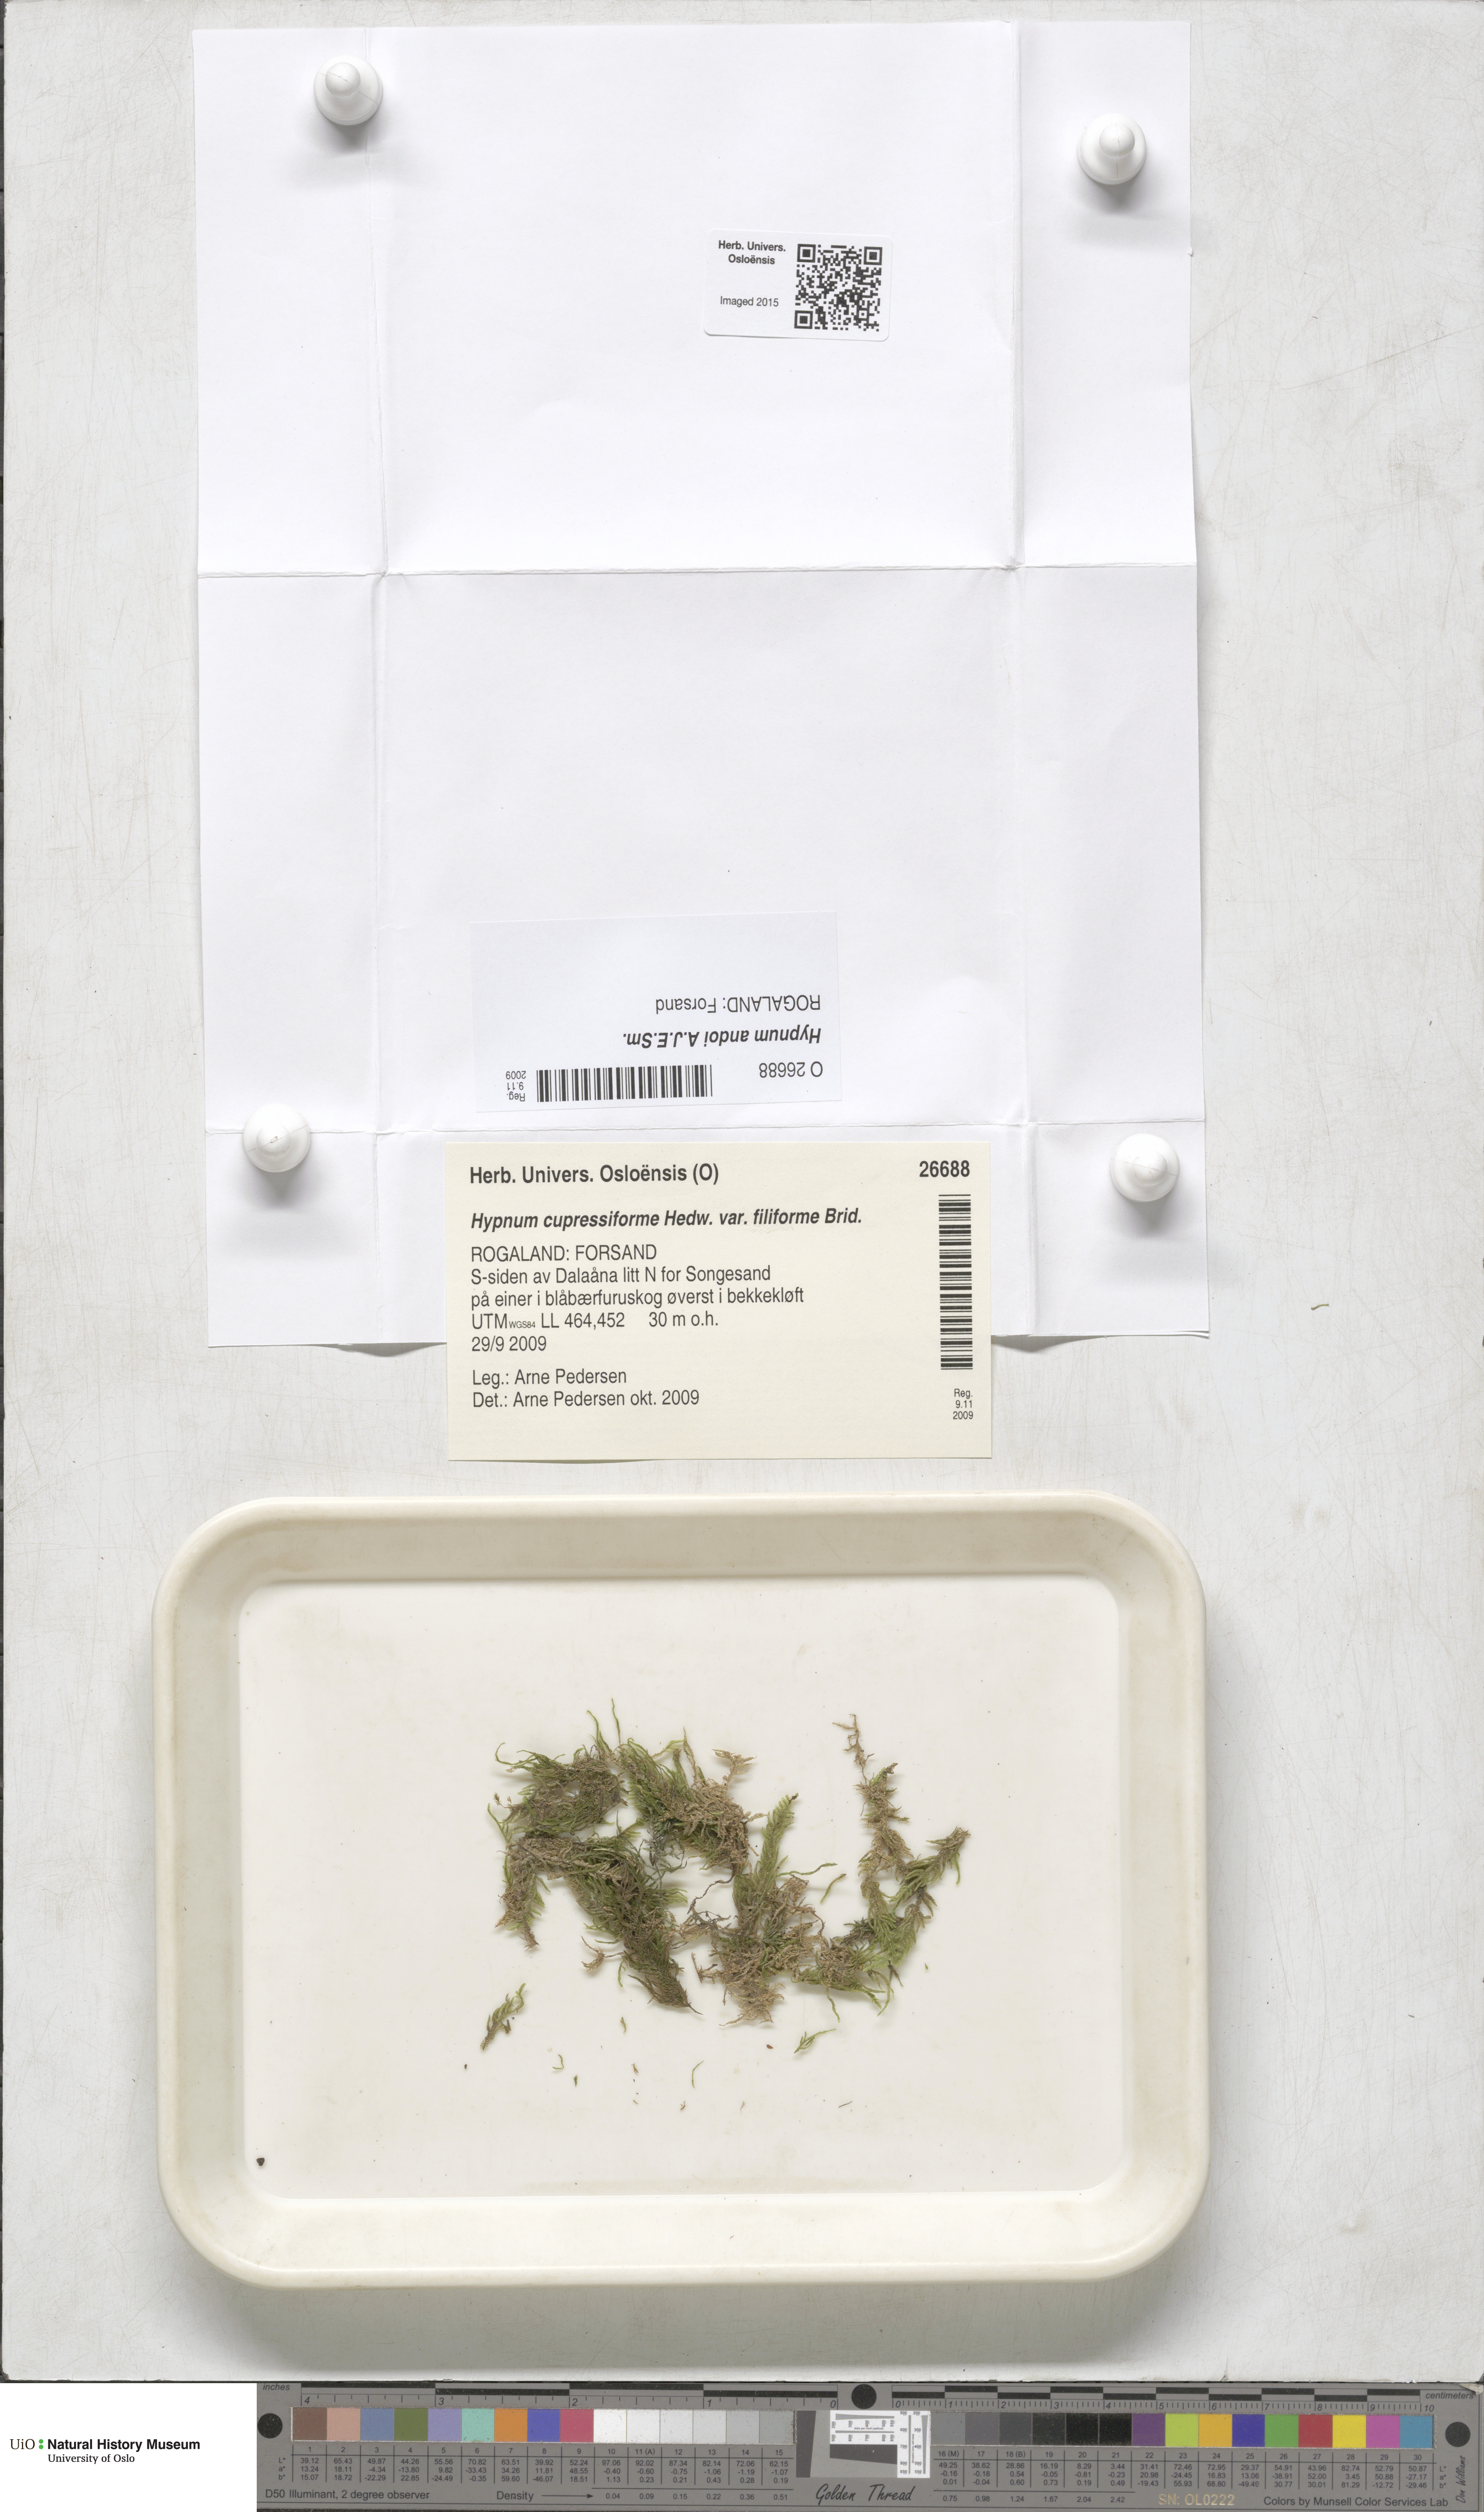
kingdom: Plantae
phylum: Bryophyta
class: Bryopsida
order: Hypnales
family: Hypnaceae
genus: Hypnum
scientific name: Hypnum andoi
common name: Ando's plait moss
